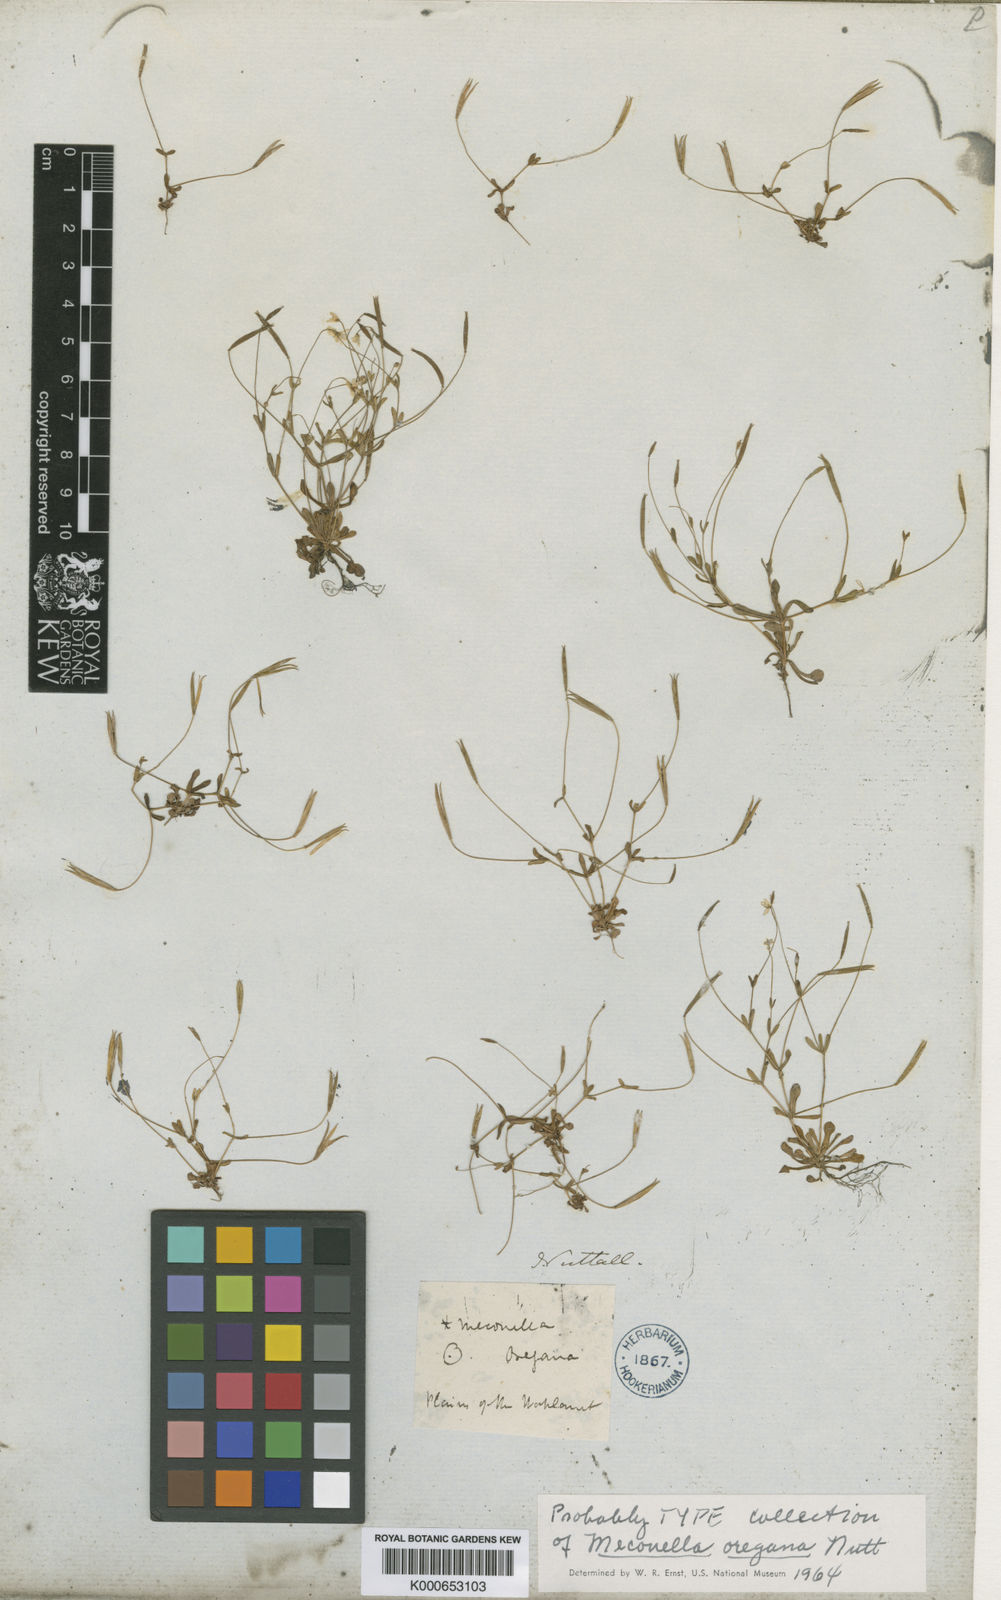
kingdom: Plantae
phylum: Tracheophyta
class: Magnoliopsida
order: Ranunculales
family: Papaveraceae
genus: Meconella
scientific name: Meconella oregana
